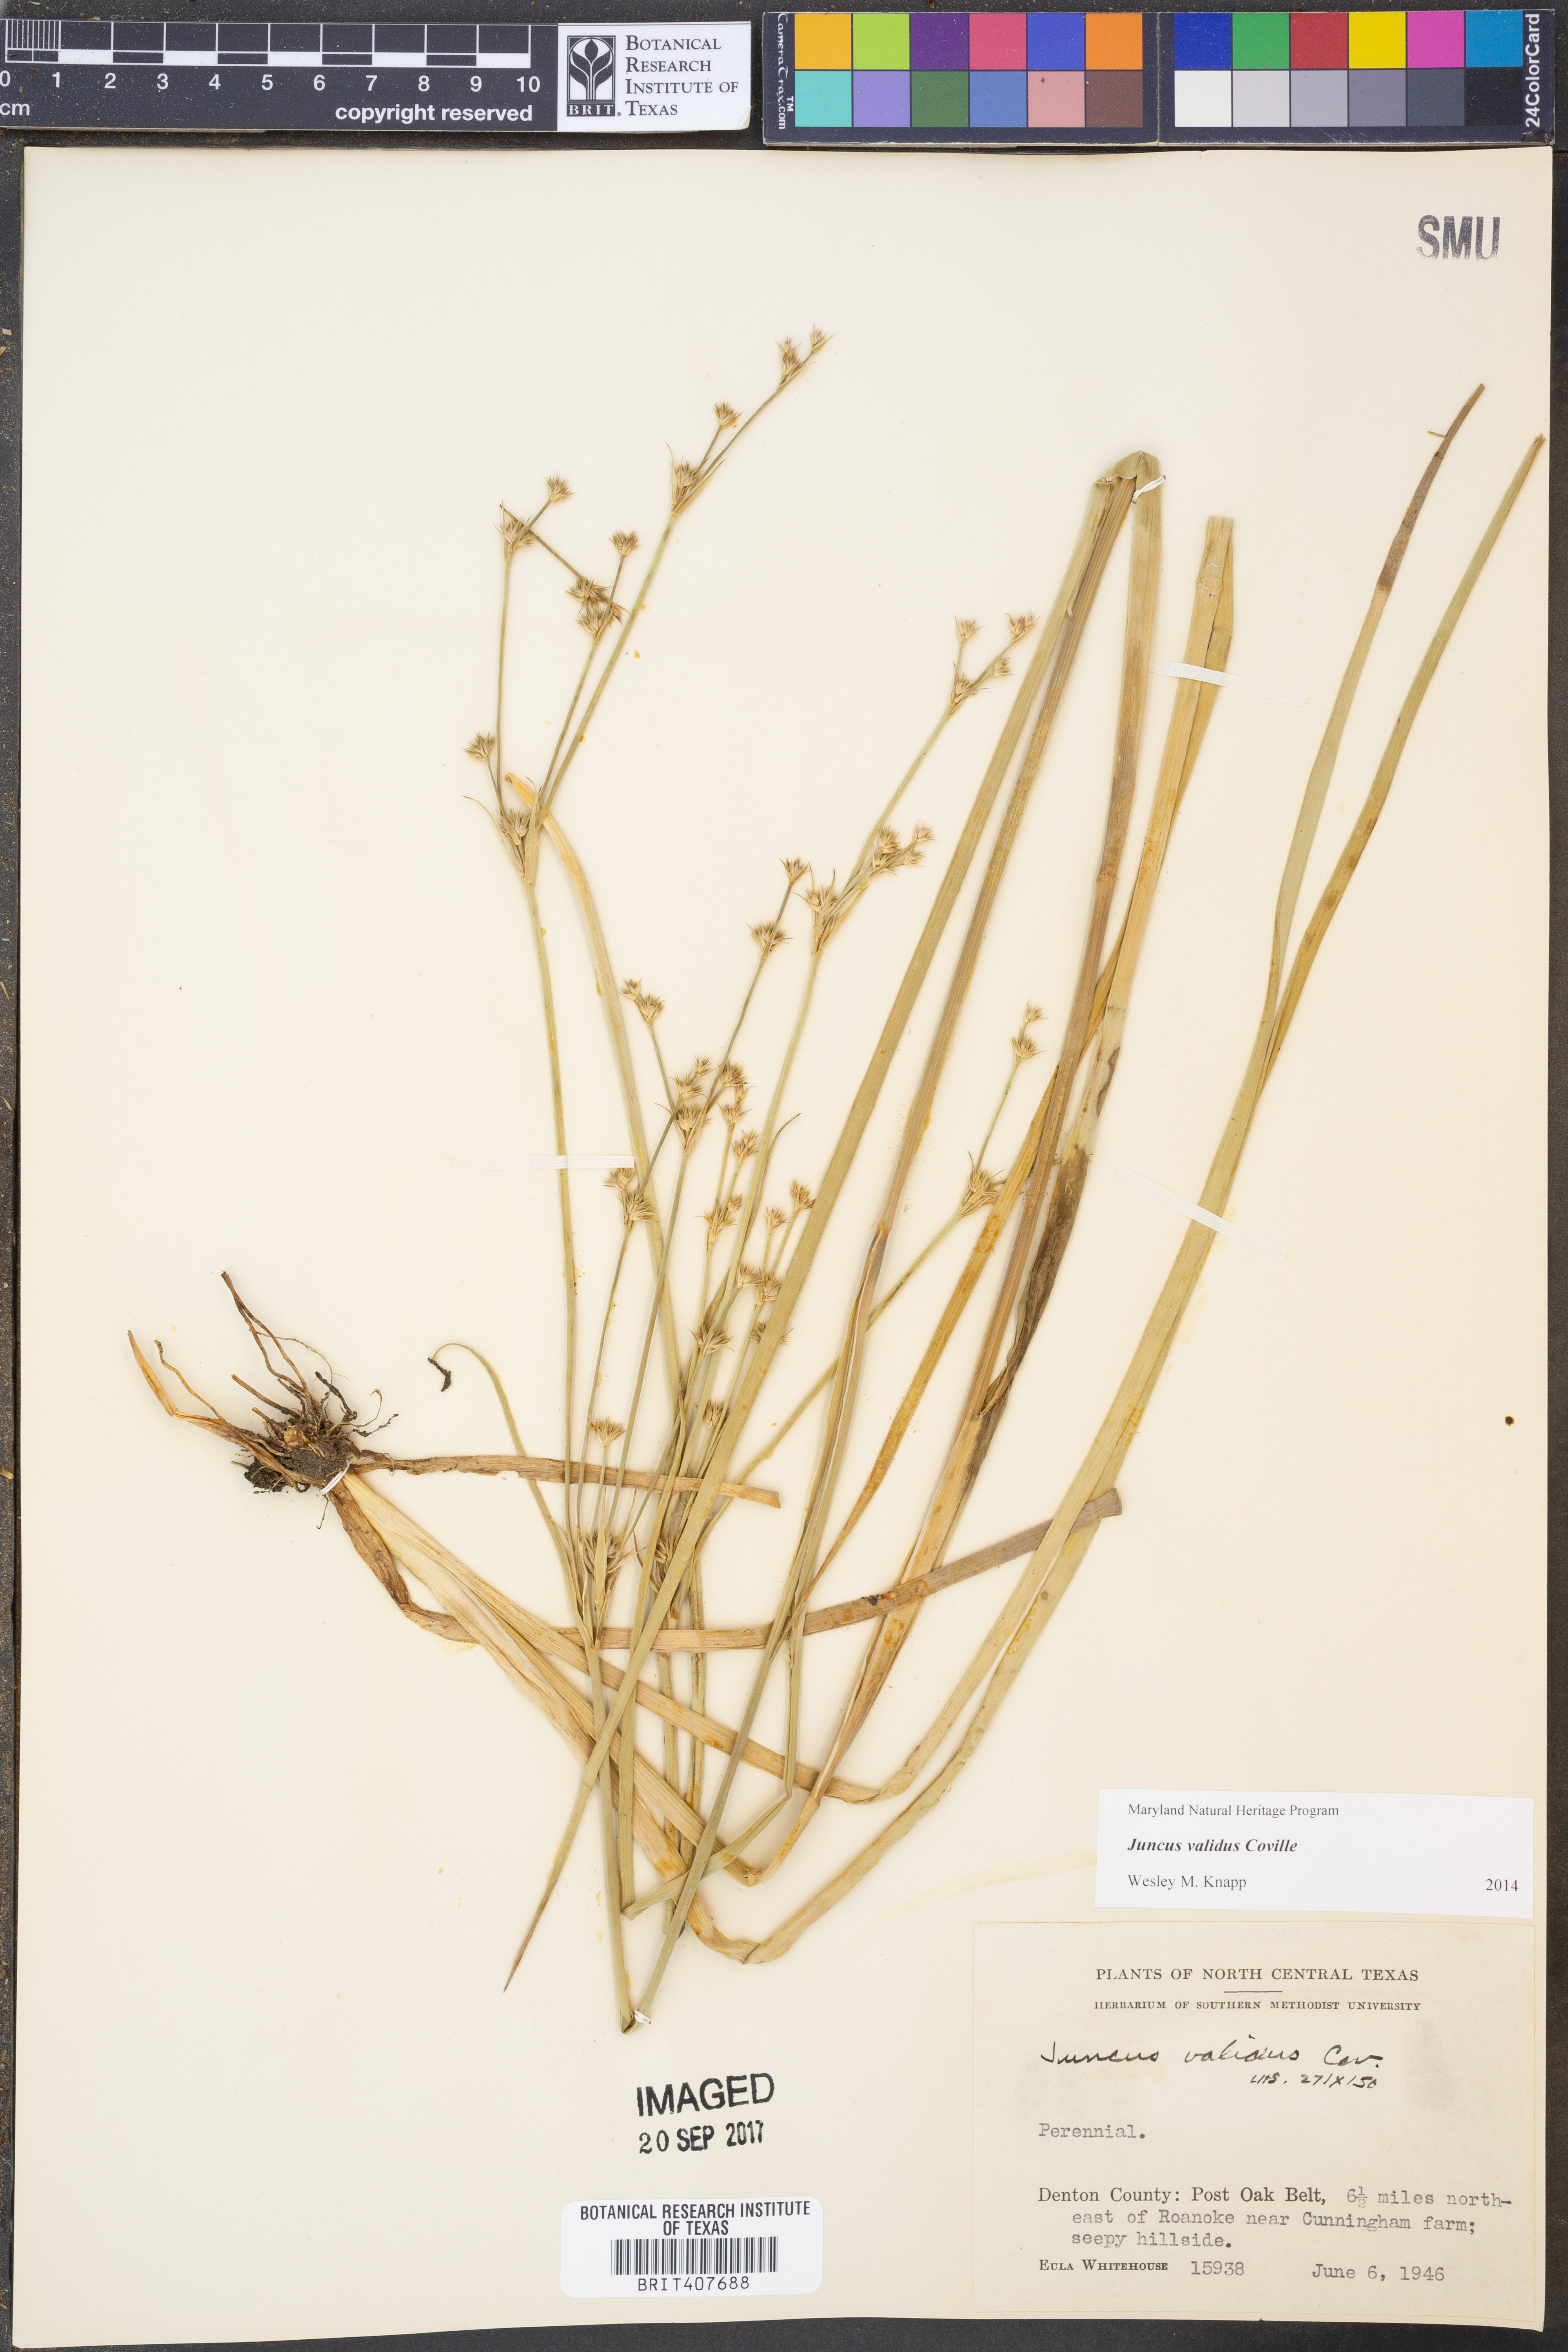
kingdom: Plantae
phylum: Tracheophyta
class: Liliopsida
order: Poales
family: Juncaceae
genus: Juncus
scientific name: Juncus validus
